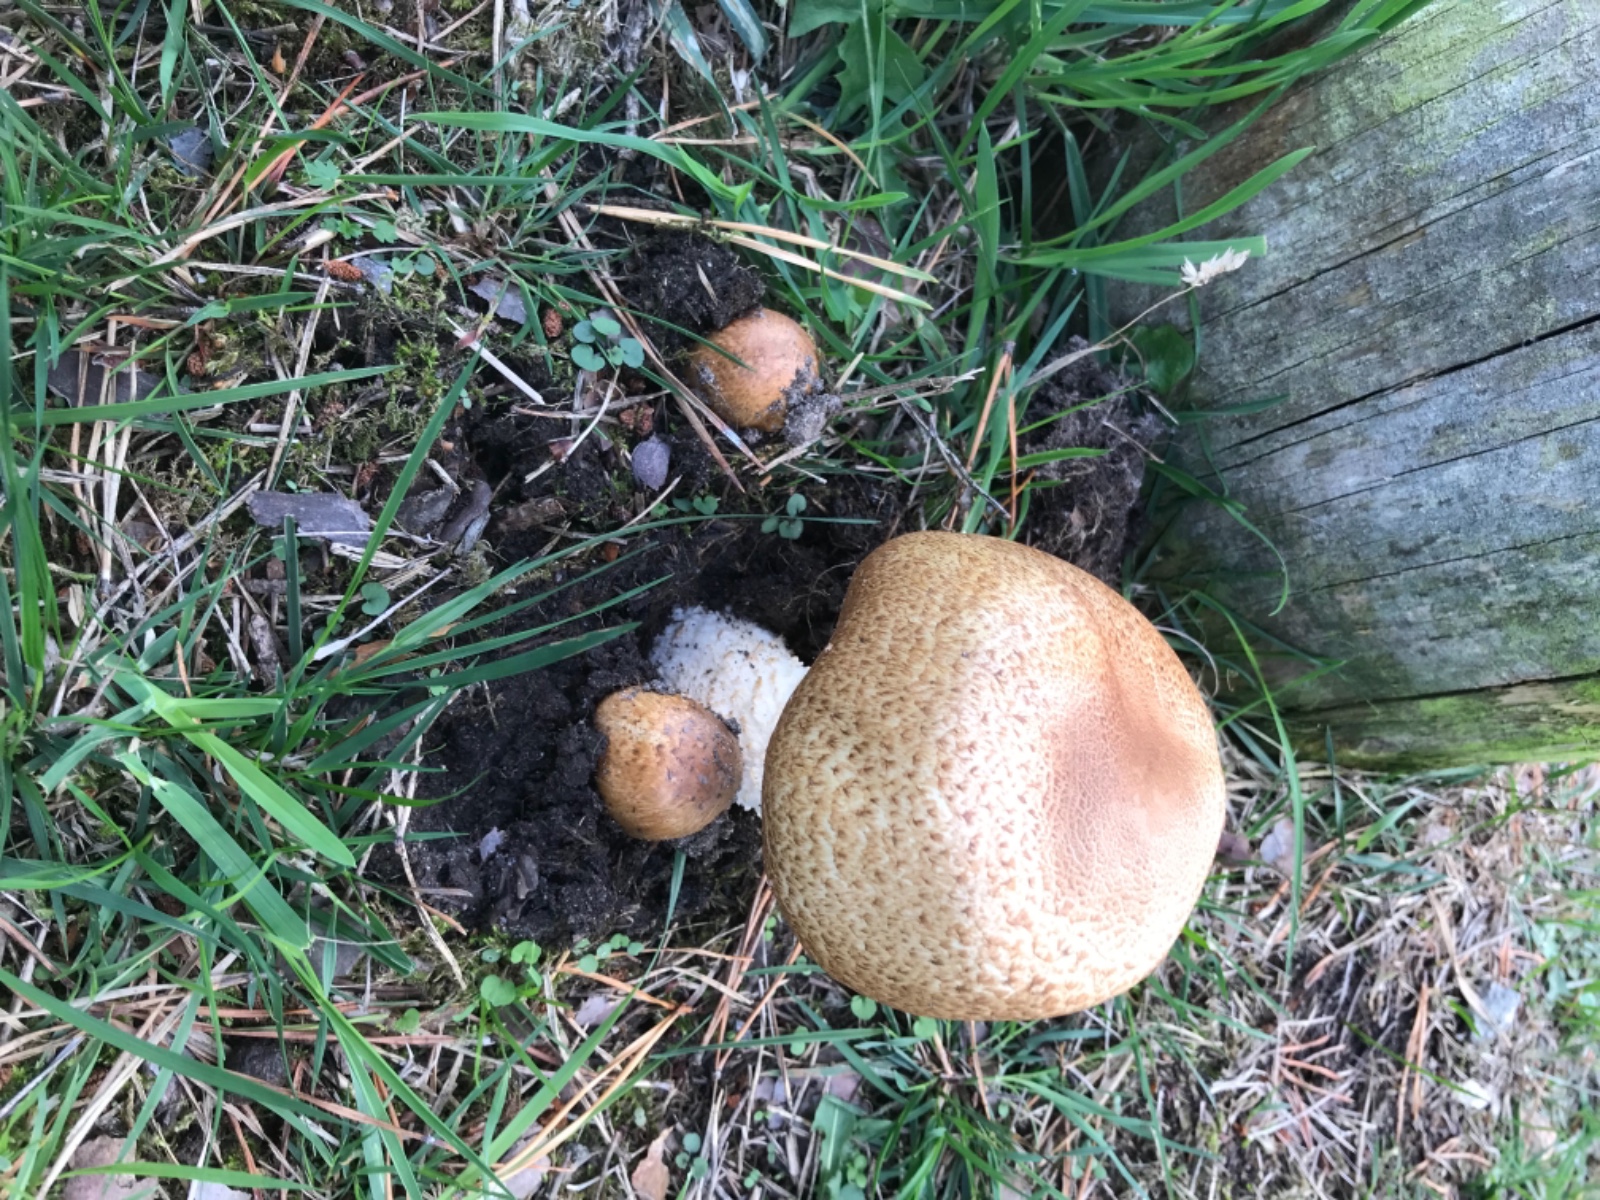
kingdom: Fungi
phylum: Basidiomycota
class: Agaricomycetes
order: Agaricales
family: Agaricaceae
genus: Agaricus
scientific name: Agaricus augustus
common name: prægtig champignon
